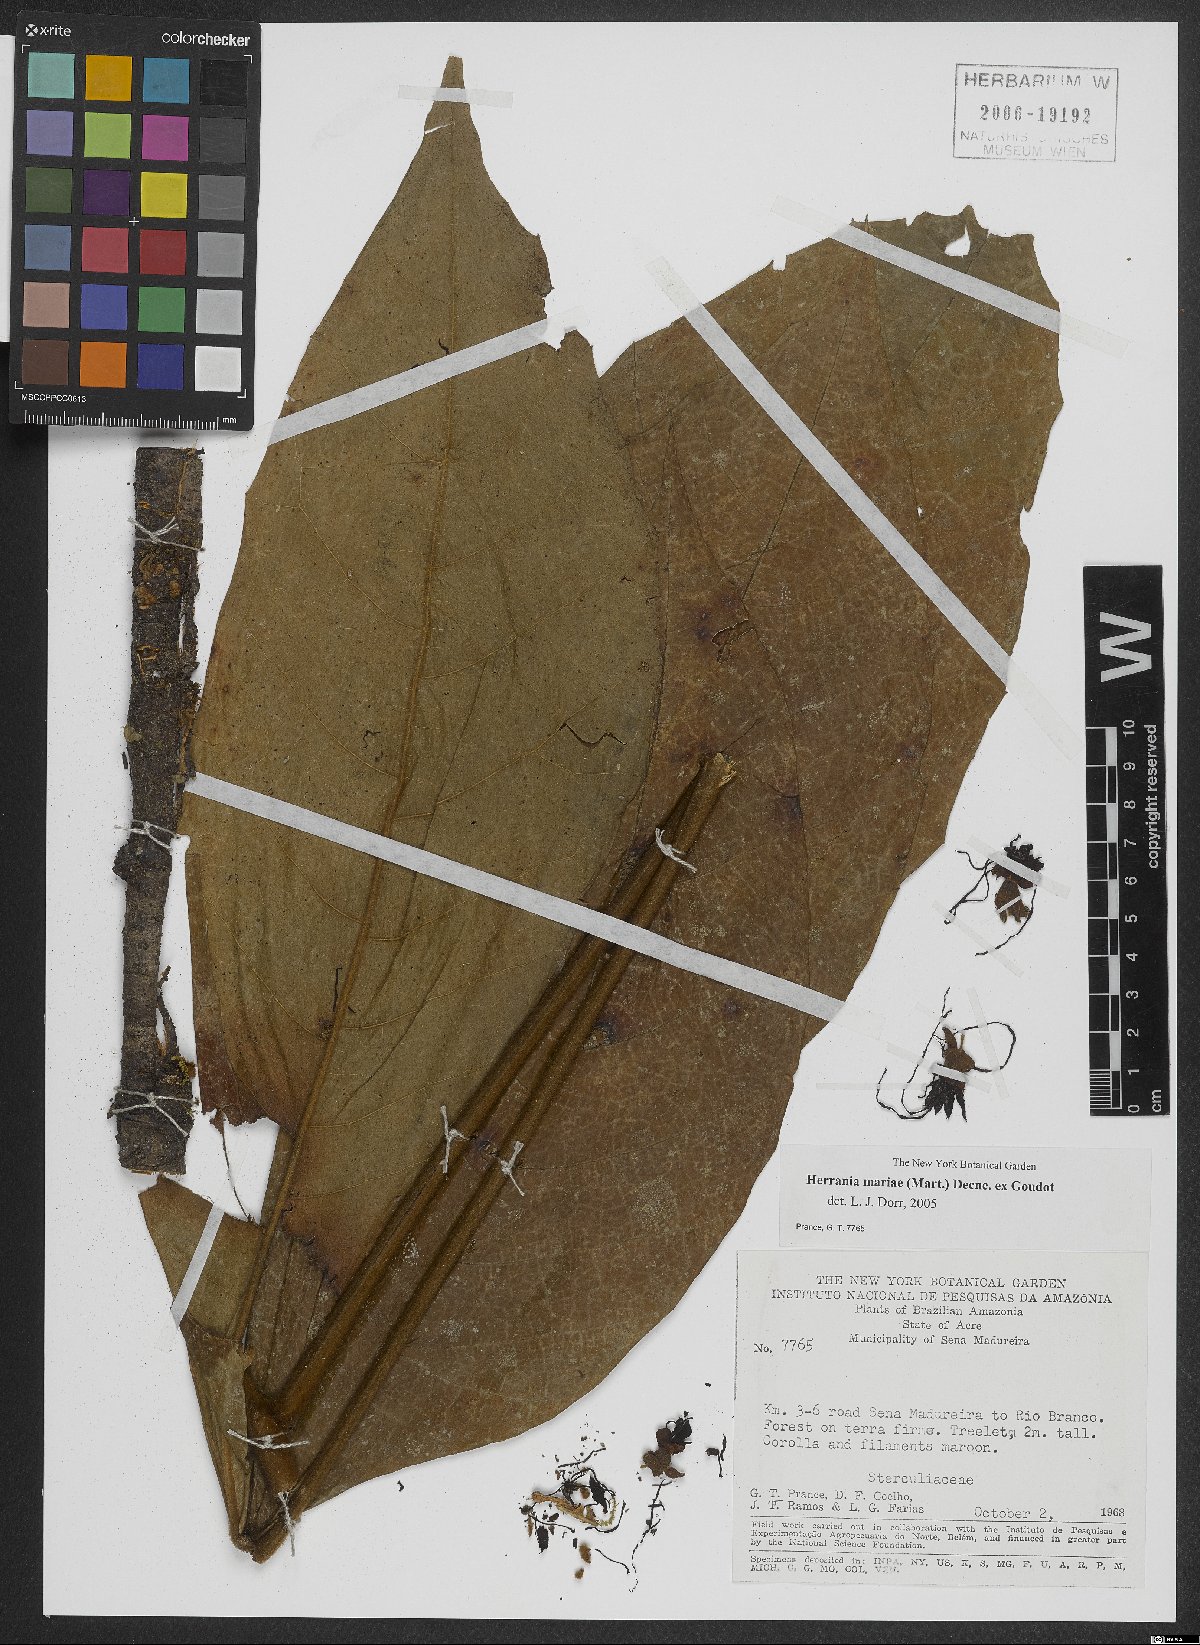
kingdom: Plantae
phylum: Tracheophyta
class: Magnoliopsida
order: Malvales
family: Malvaceae
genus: Herrania
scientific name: Herrania mariae
